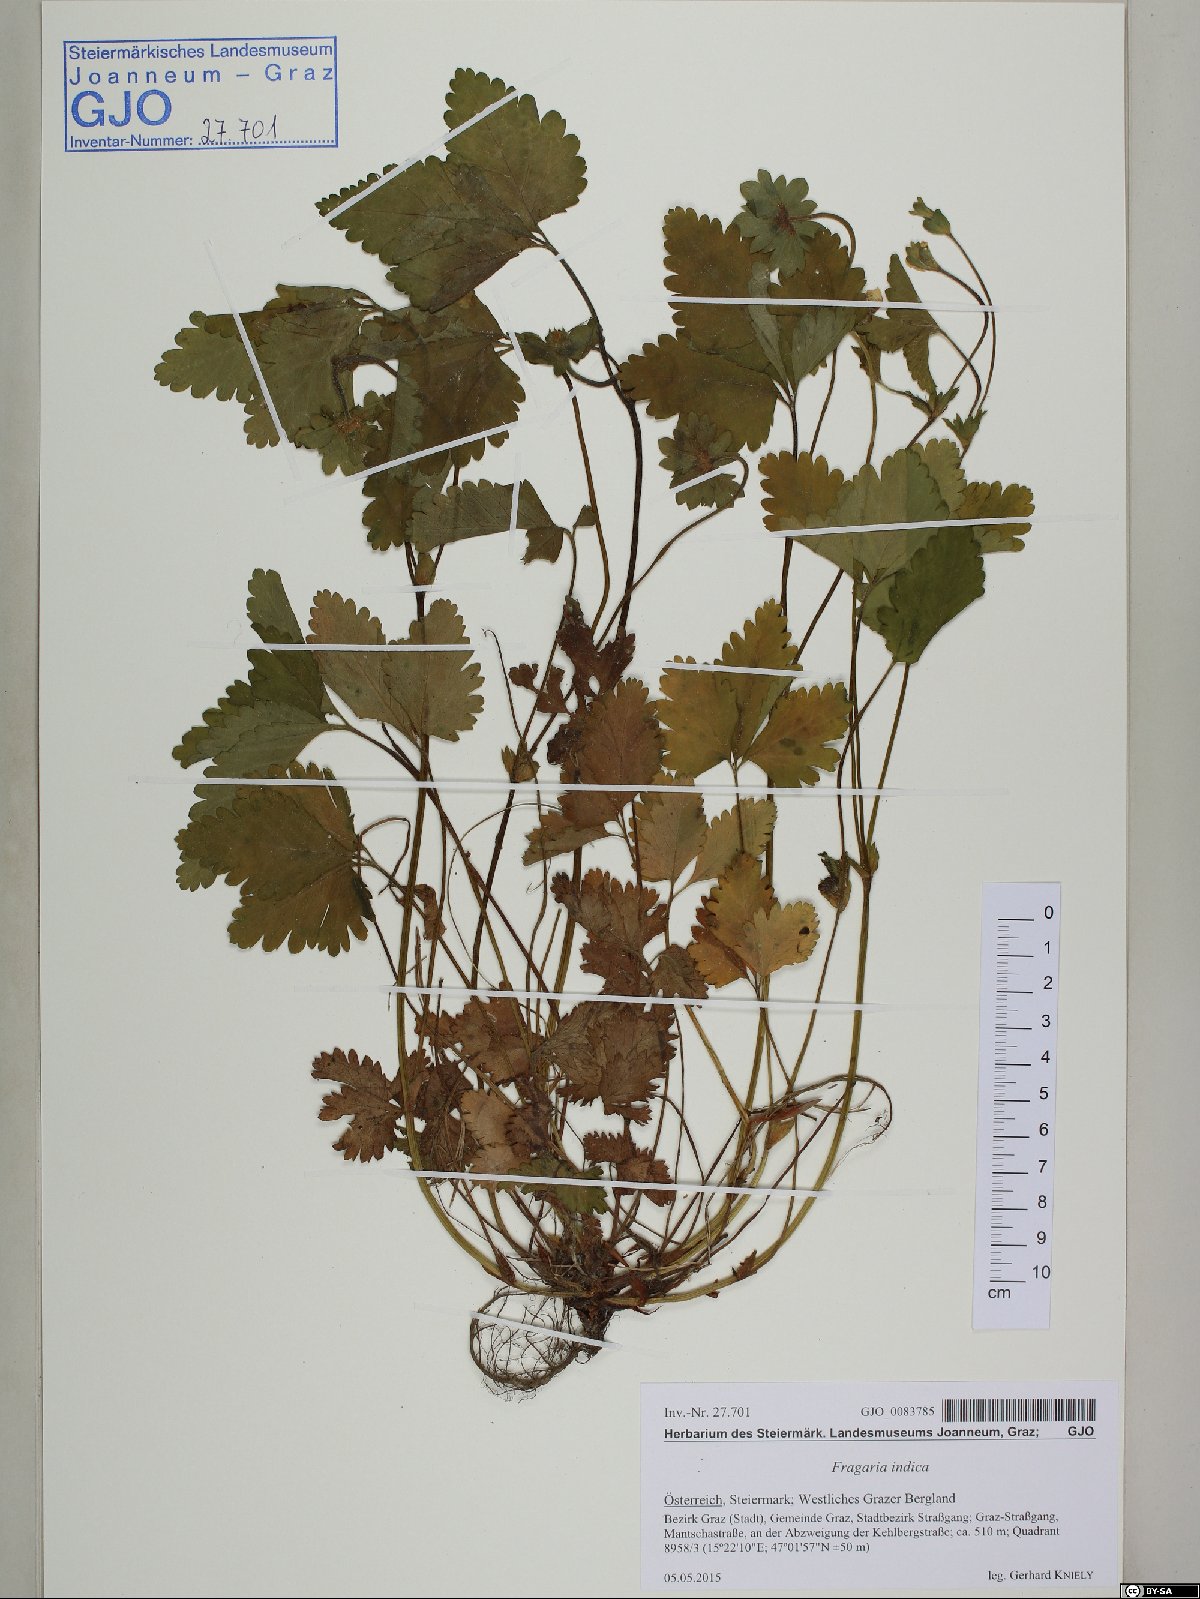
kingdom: Plantae
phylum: Tracheophyta
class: Magnoliopsida
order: Rosales
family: Rosaceae
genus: Potentilla
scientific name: Potentilla indica
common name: Yellow-flowered strawberry
